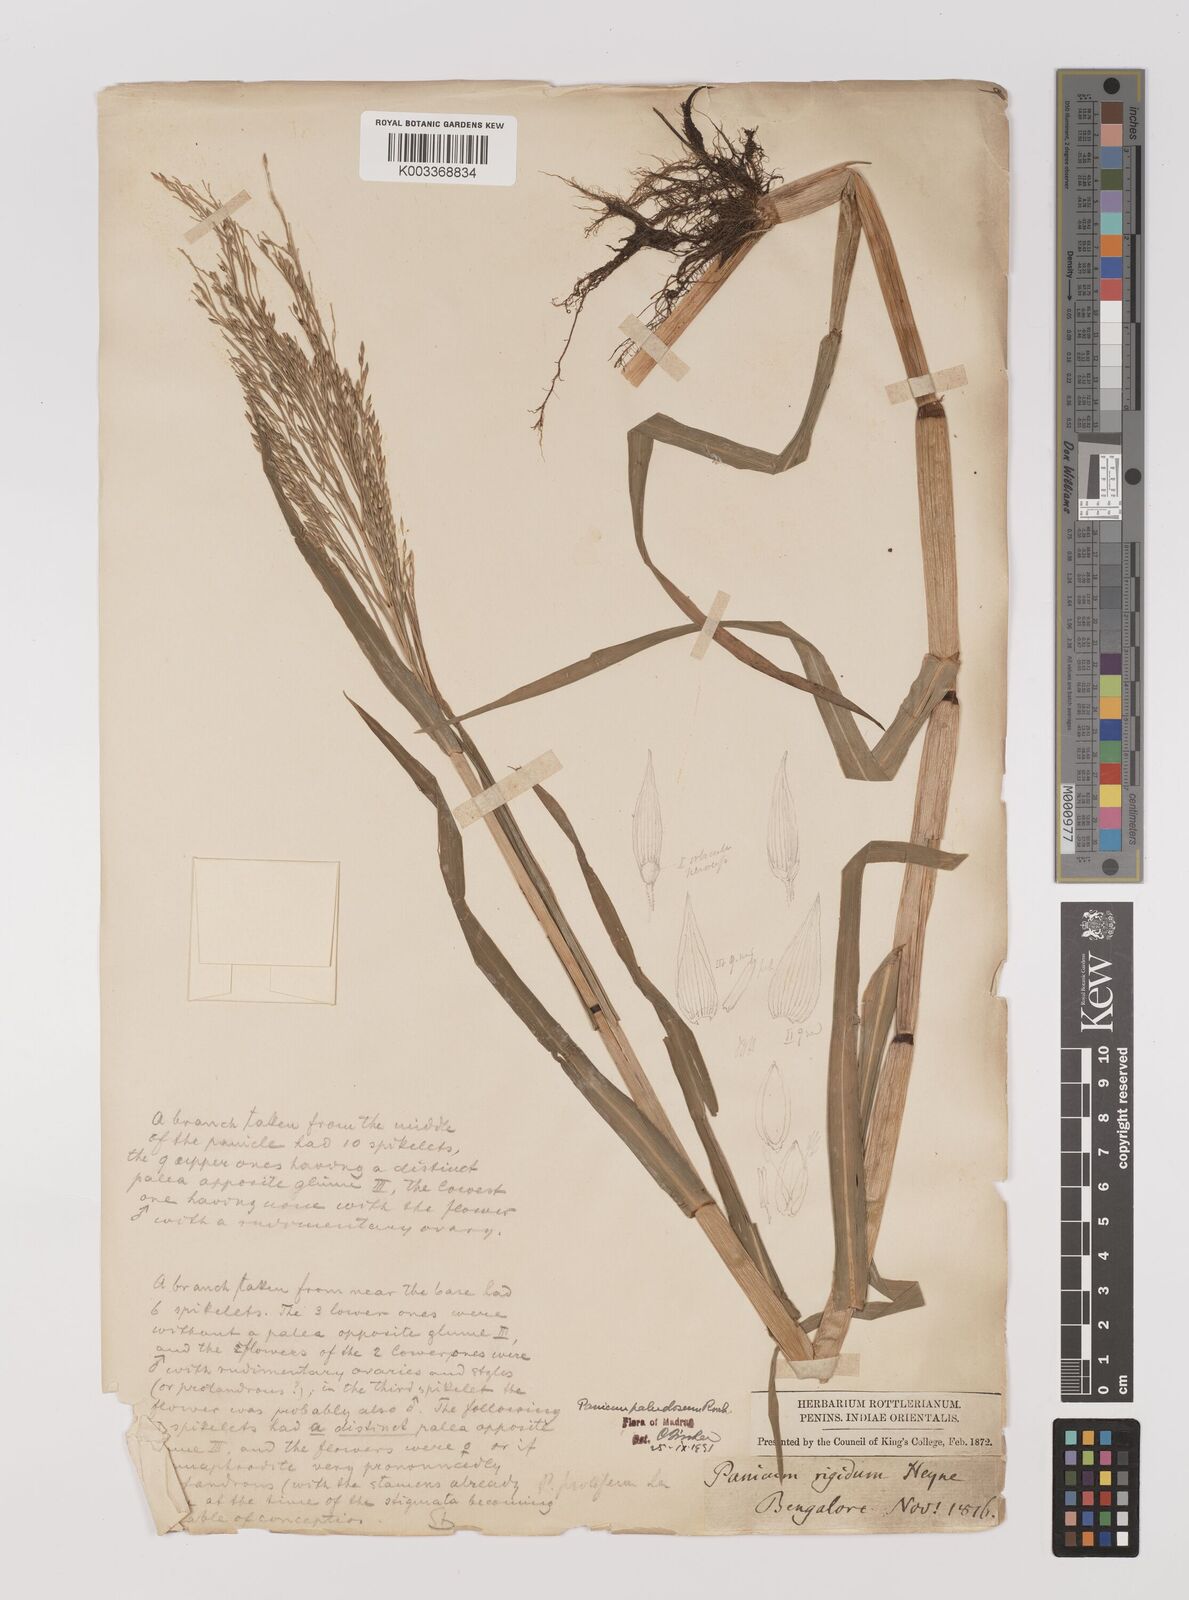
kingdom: Plantae
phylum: Tracheophyta
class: Liliopsida
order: Poales
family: Poaceae
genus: Louisiella
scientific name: Louisiella paludosa
